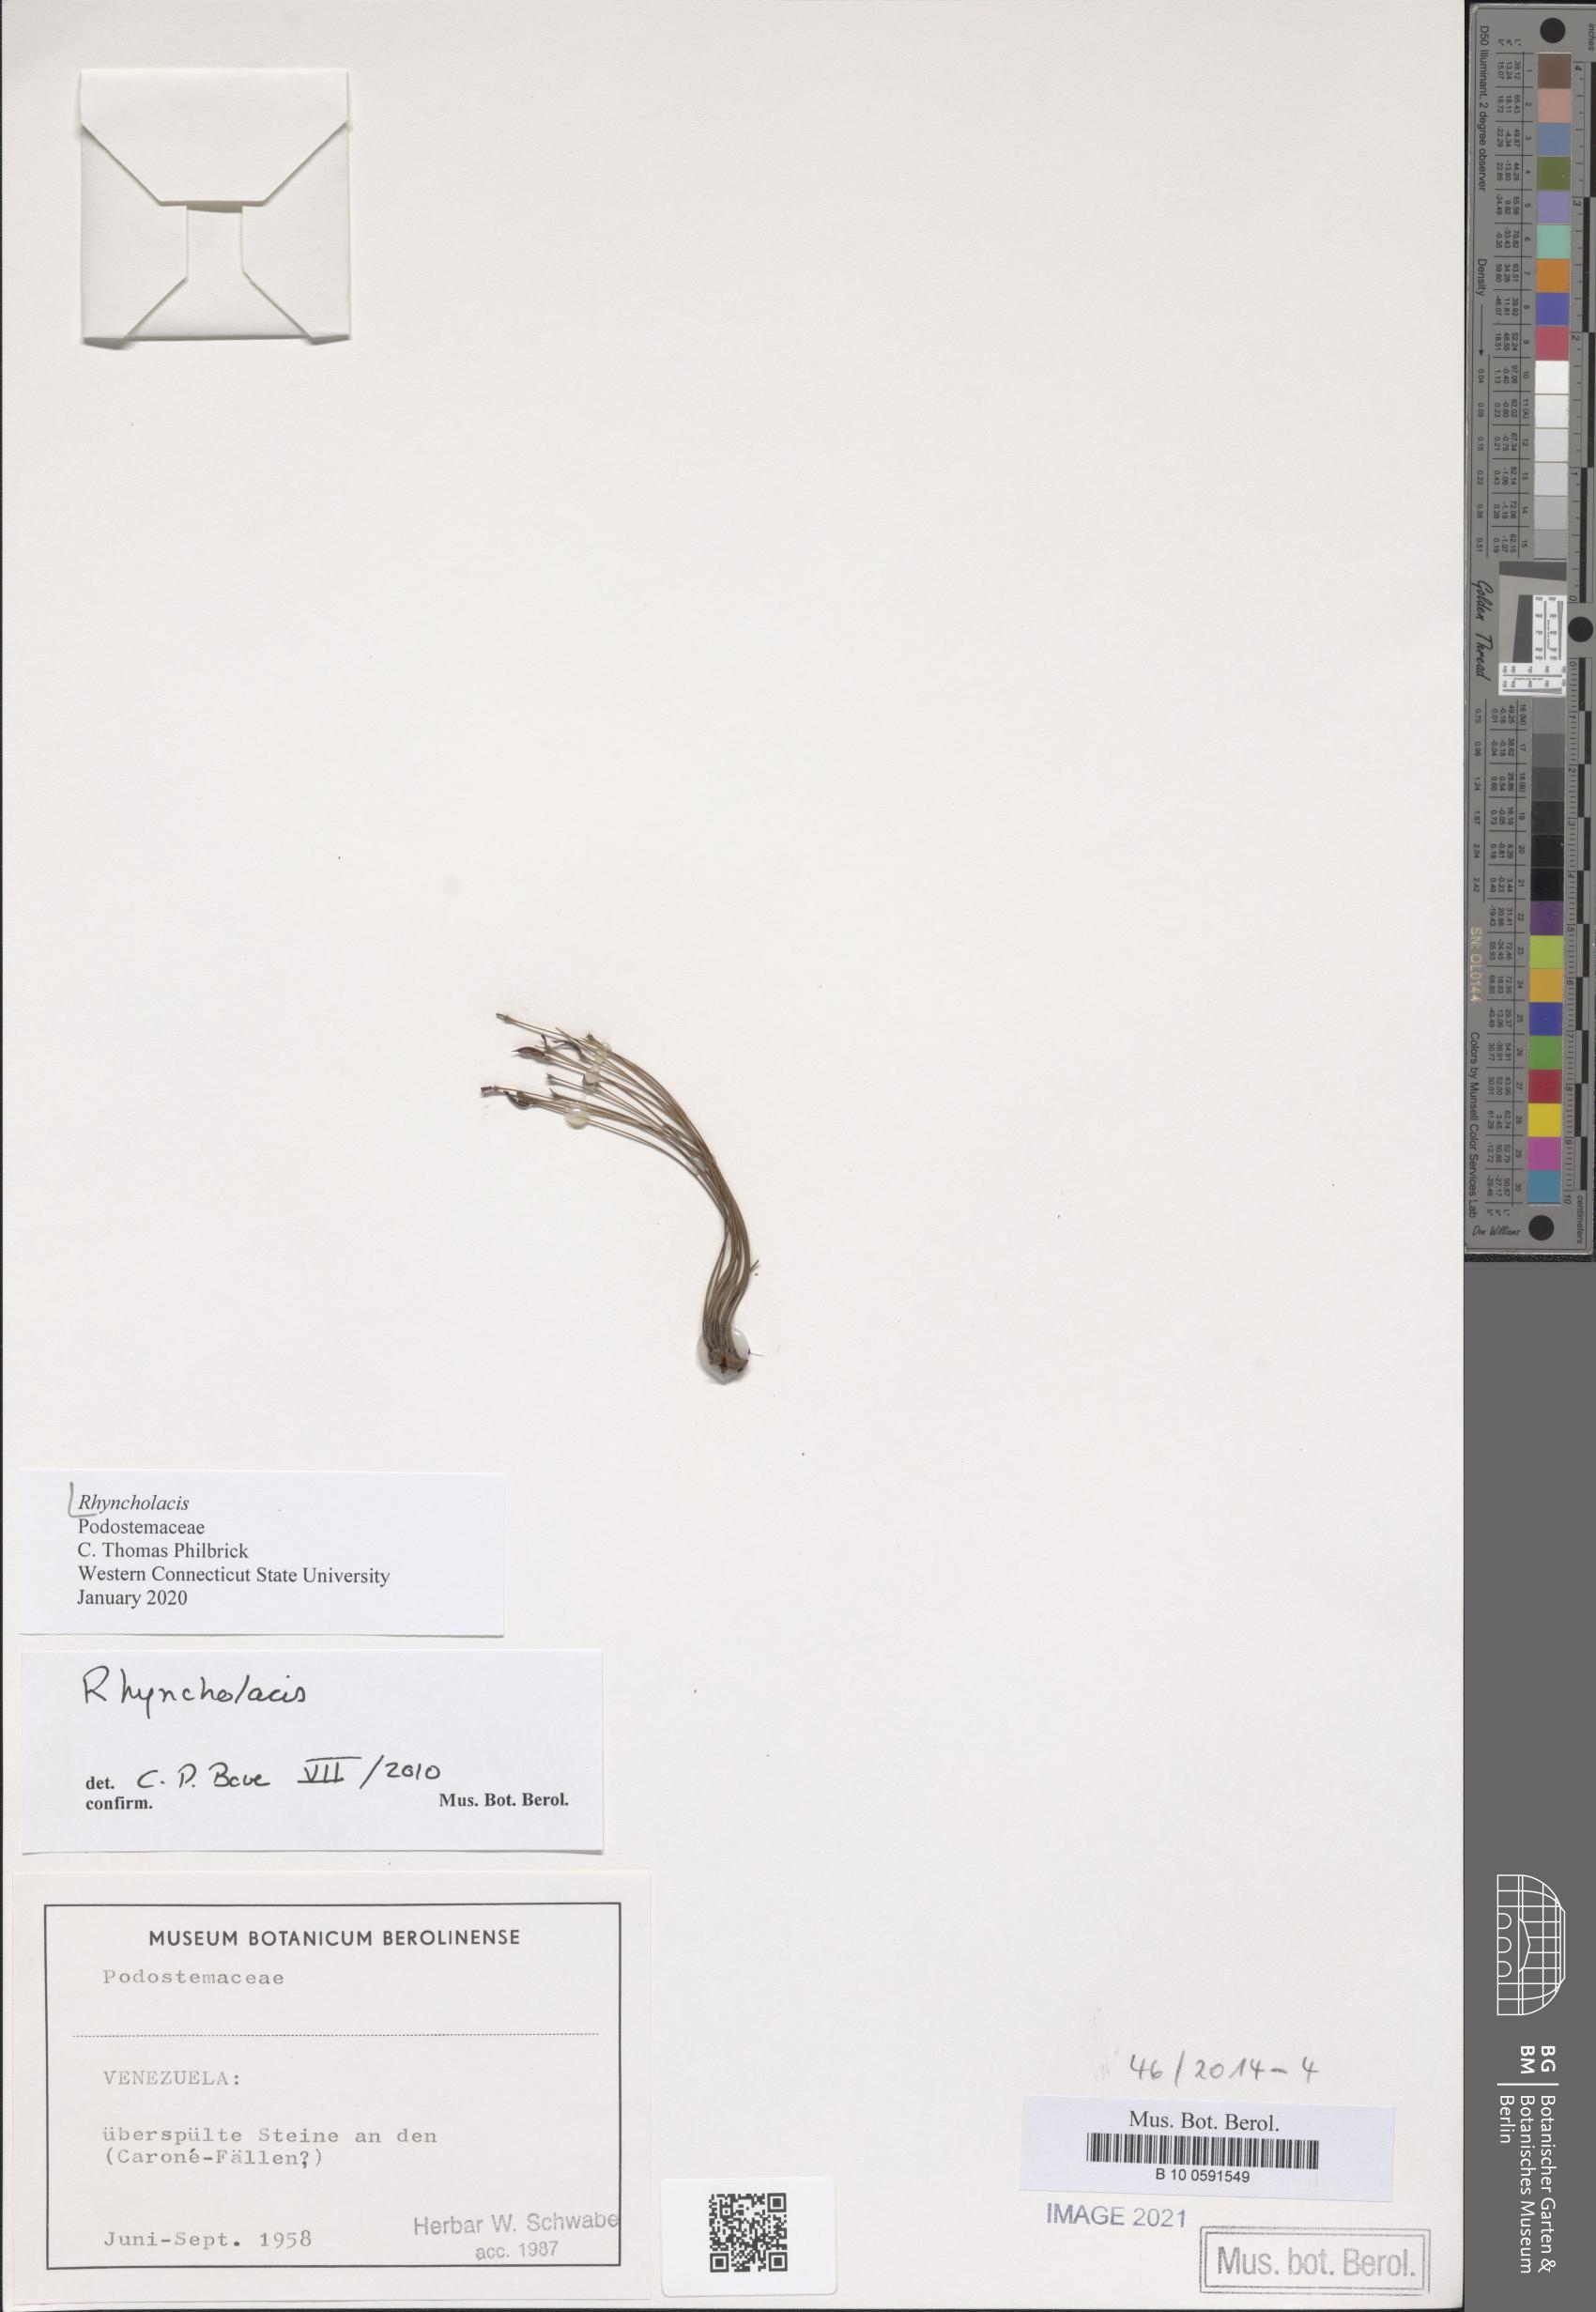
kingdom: Plantae
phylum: Tracheophyta
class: Magnoliopsida
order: Malpighiales
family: Podostemaceae
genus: Rhyncholacis
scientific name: Rhyncholacis
